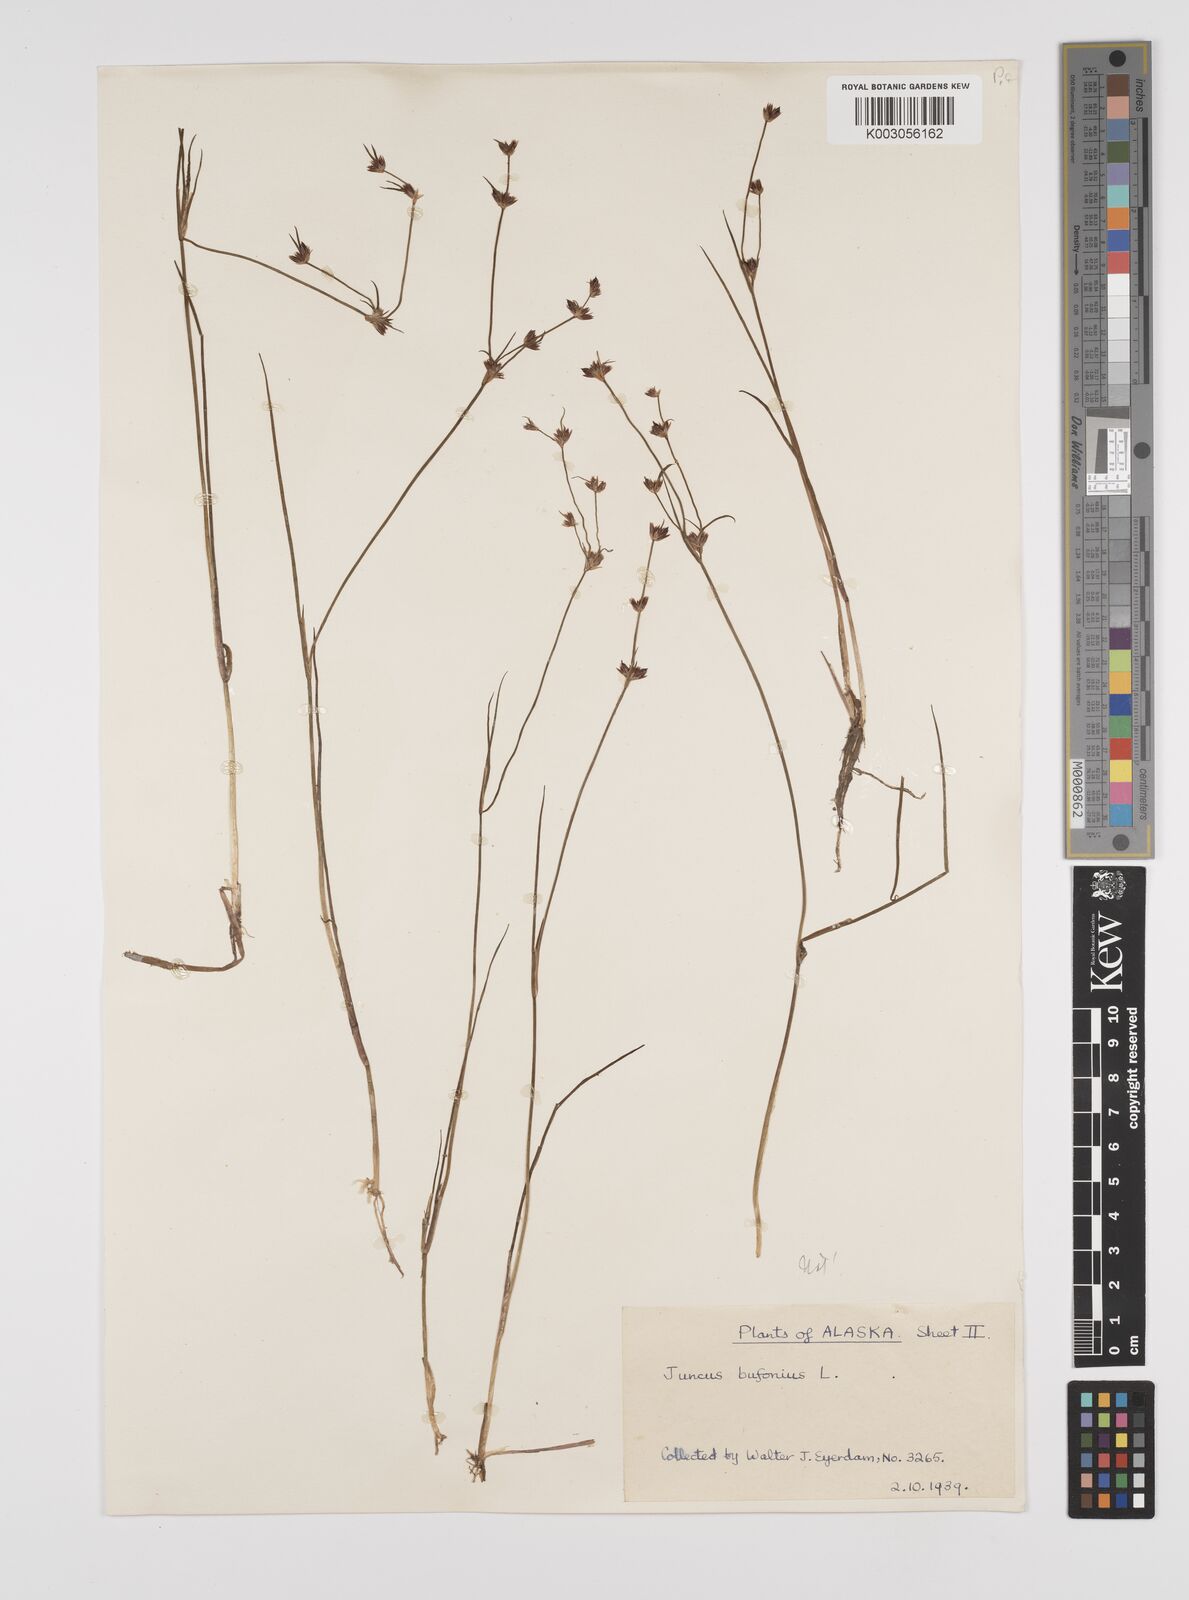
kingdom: Plantae
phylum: Tracheophyta
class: Liliopsida
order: Poales
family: Juncaceae
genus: Juncus
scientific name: Juncus bufonius
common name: Toad rush
